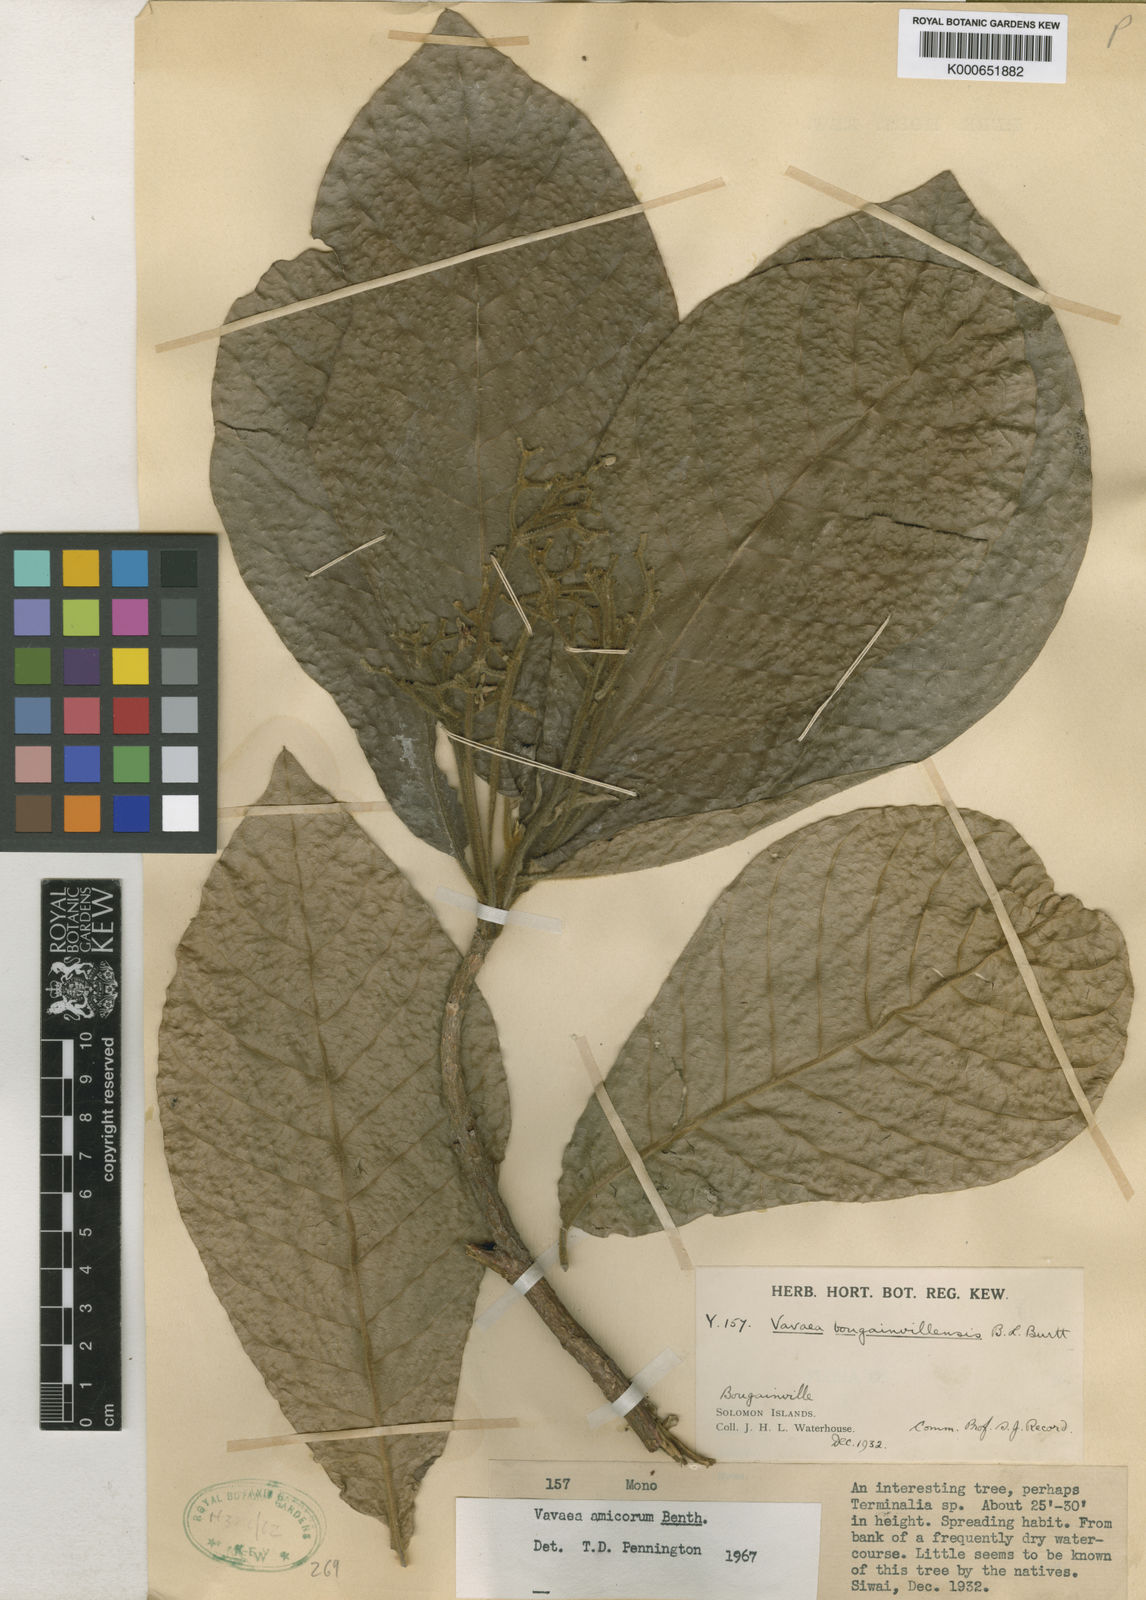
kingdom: Plantae
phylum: Tracheophyta
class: Magnoliopsida
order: Sapindales
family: Meliaceae
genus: Vavaea
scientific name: Vavaea amicorum
